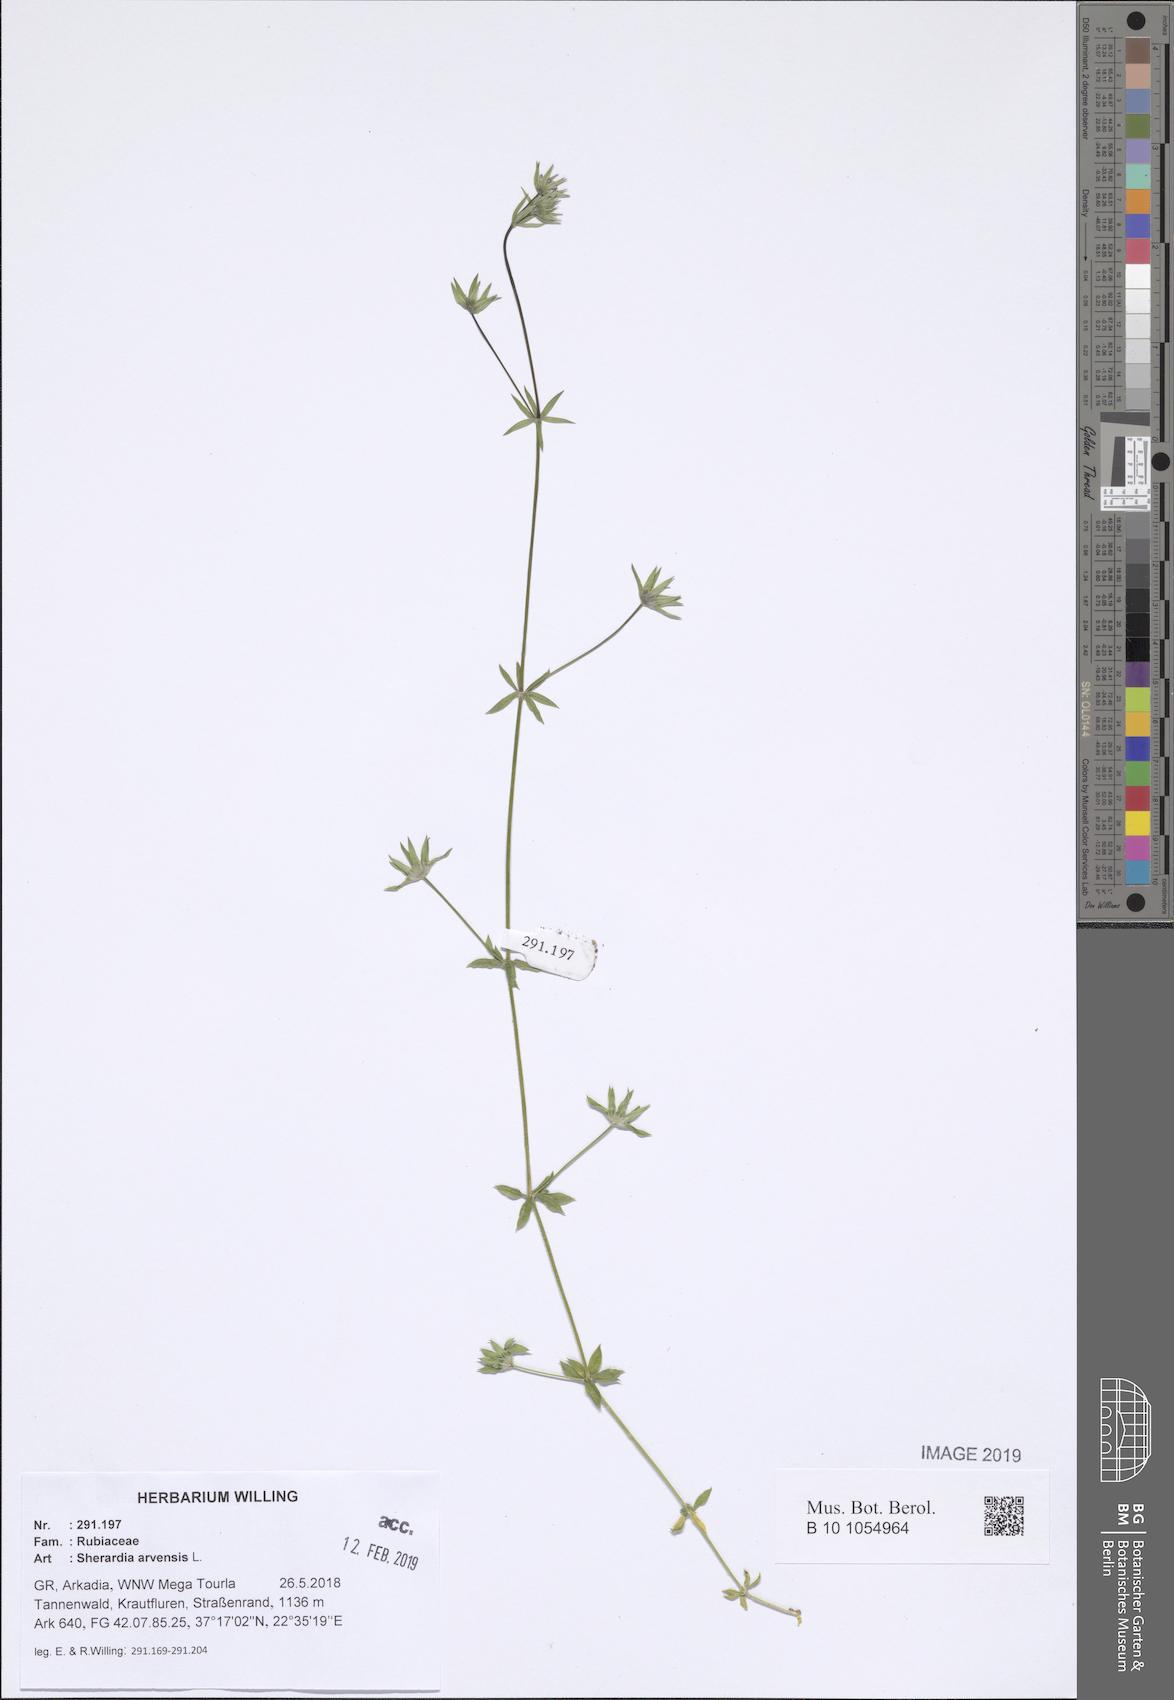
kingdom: Plantae
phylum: Tracheophyta
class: Magnoliopsida
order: Gentianales
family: Rubiaceae
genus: Sherardia
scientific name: Sherardia arvensis
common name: Field madder
